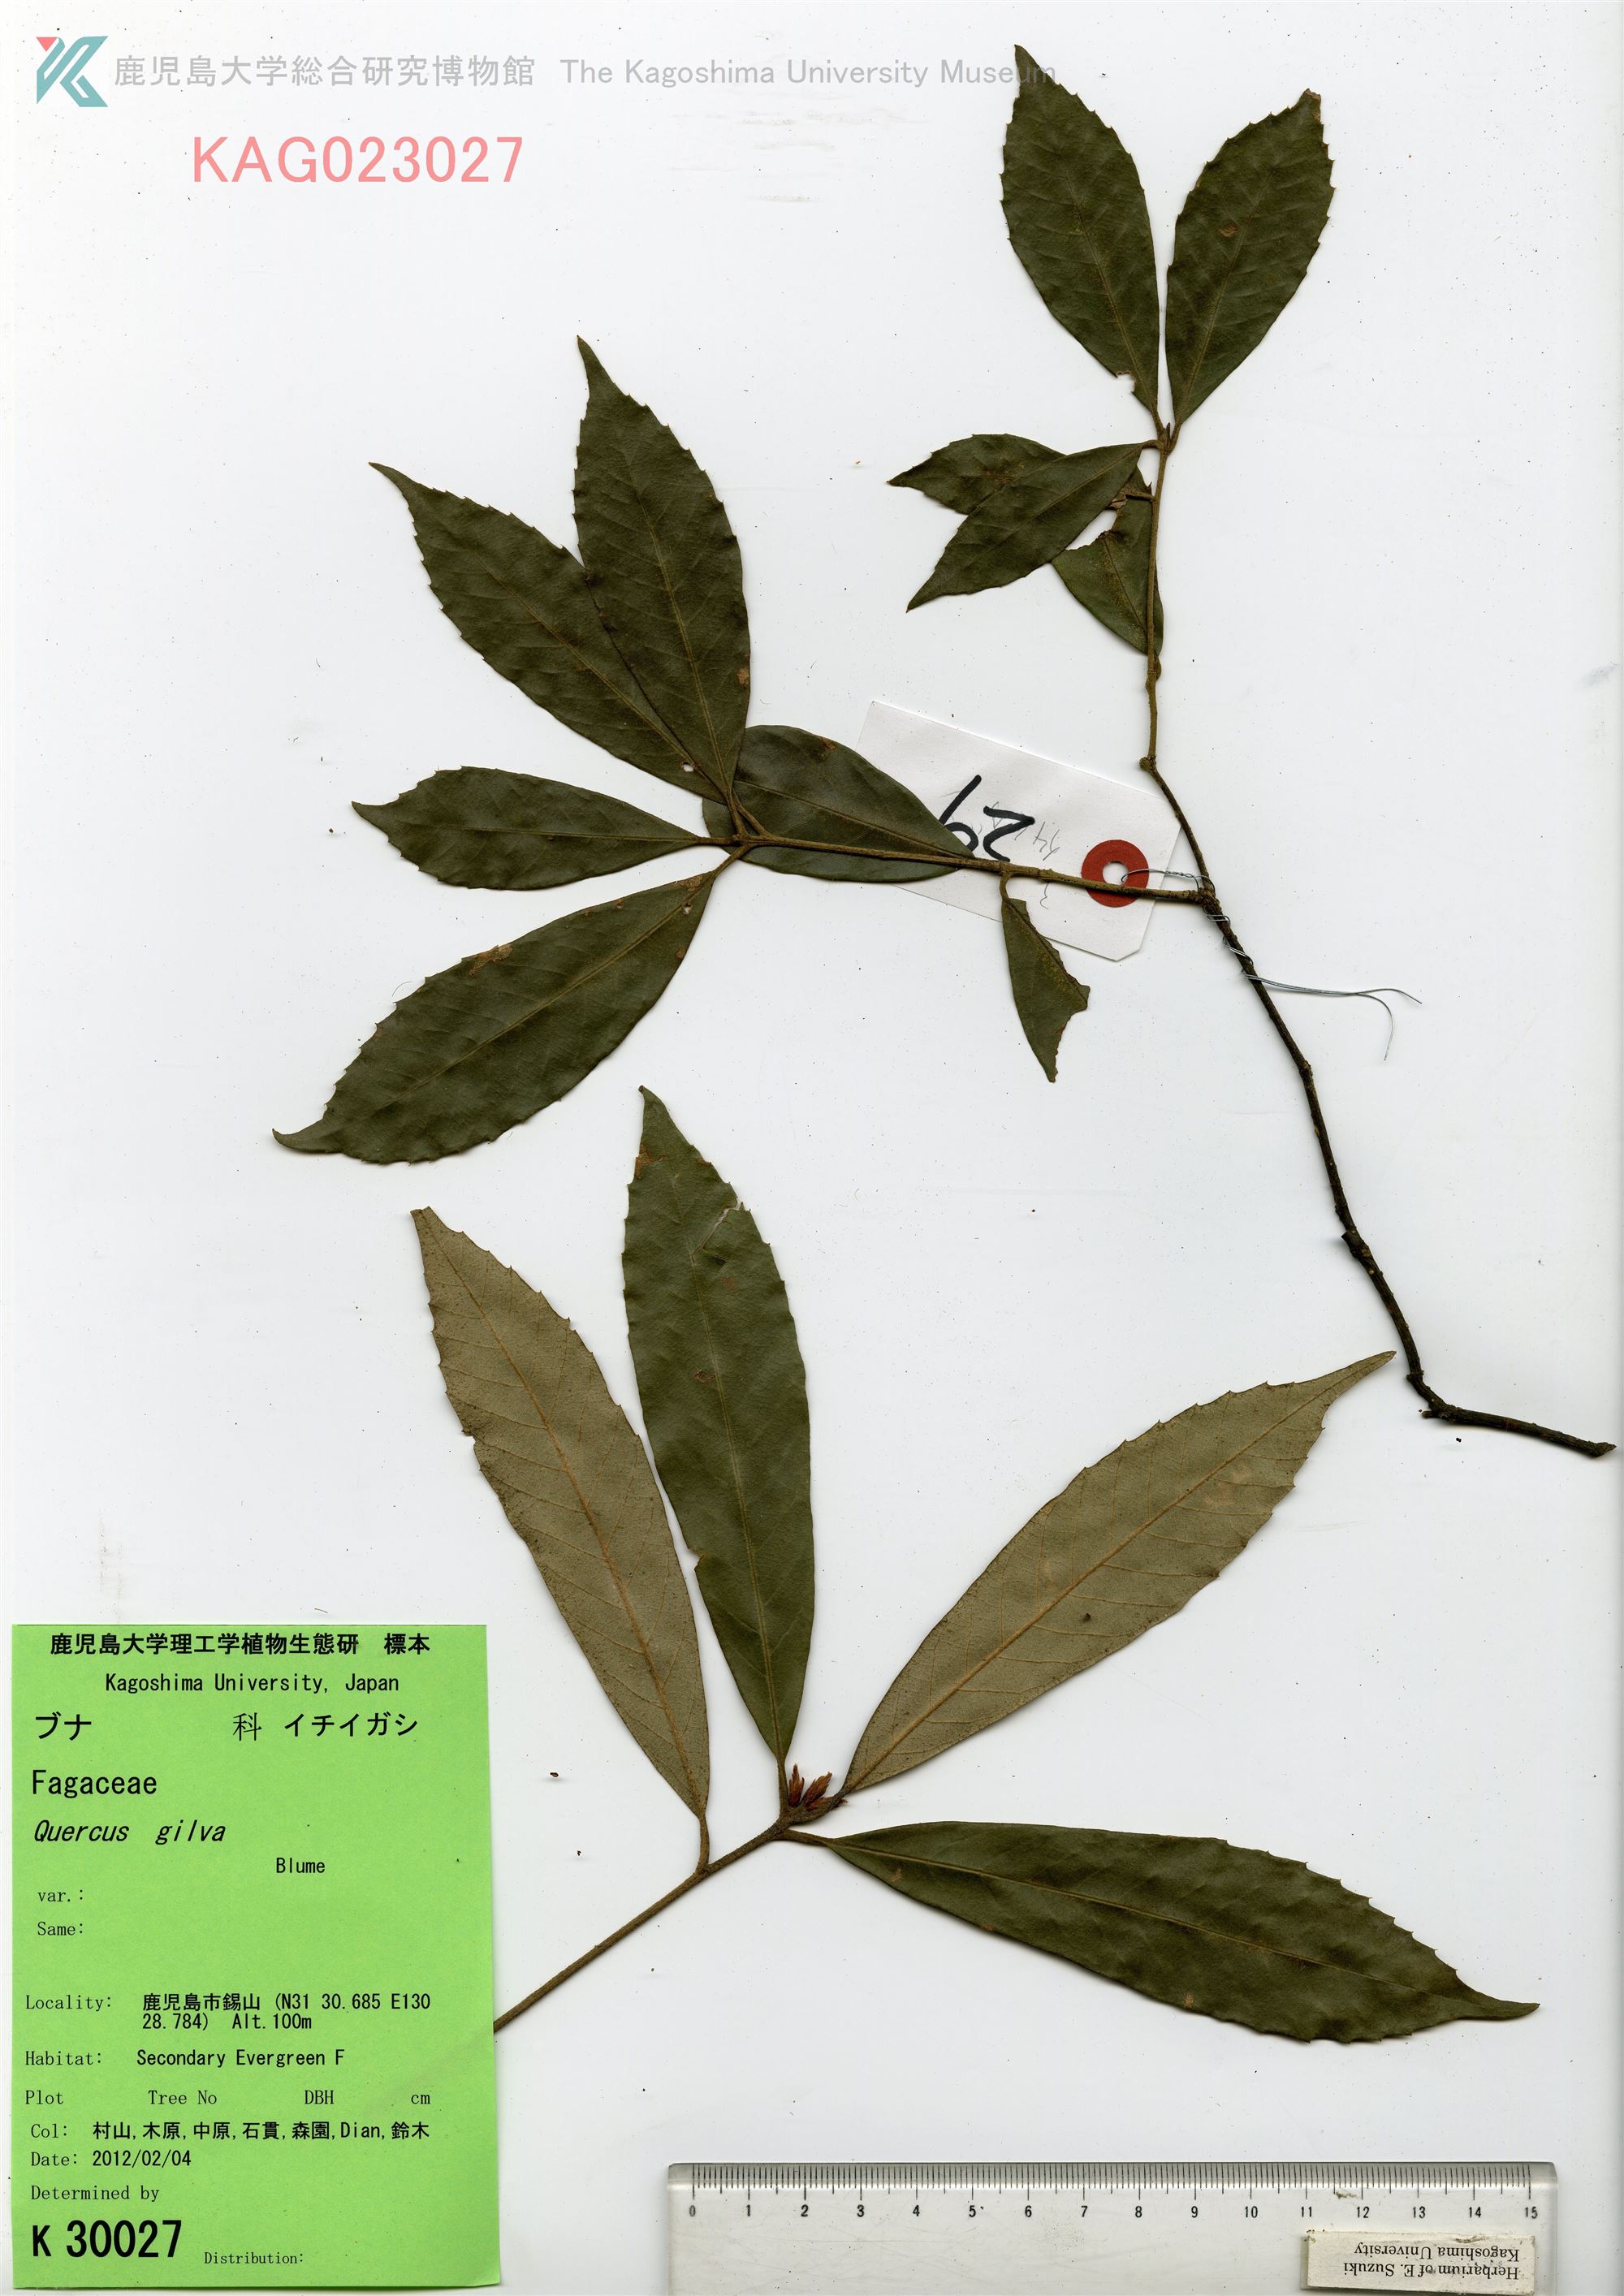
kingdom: Plantae
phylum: Tracheophyta
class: Magnoliopsida
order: Fagales
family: Fagaceae
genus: Quercus
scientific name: Quercus gilva
